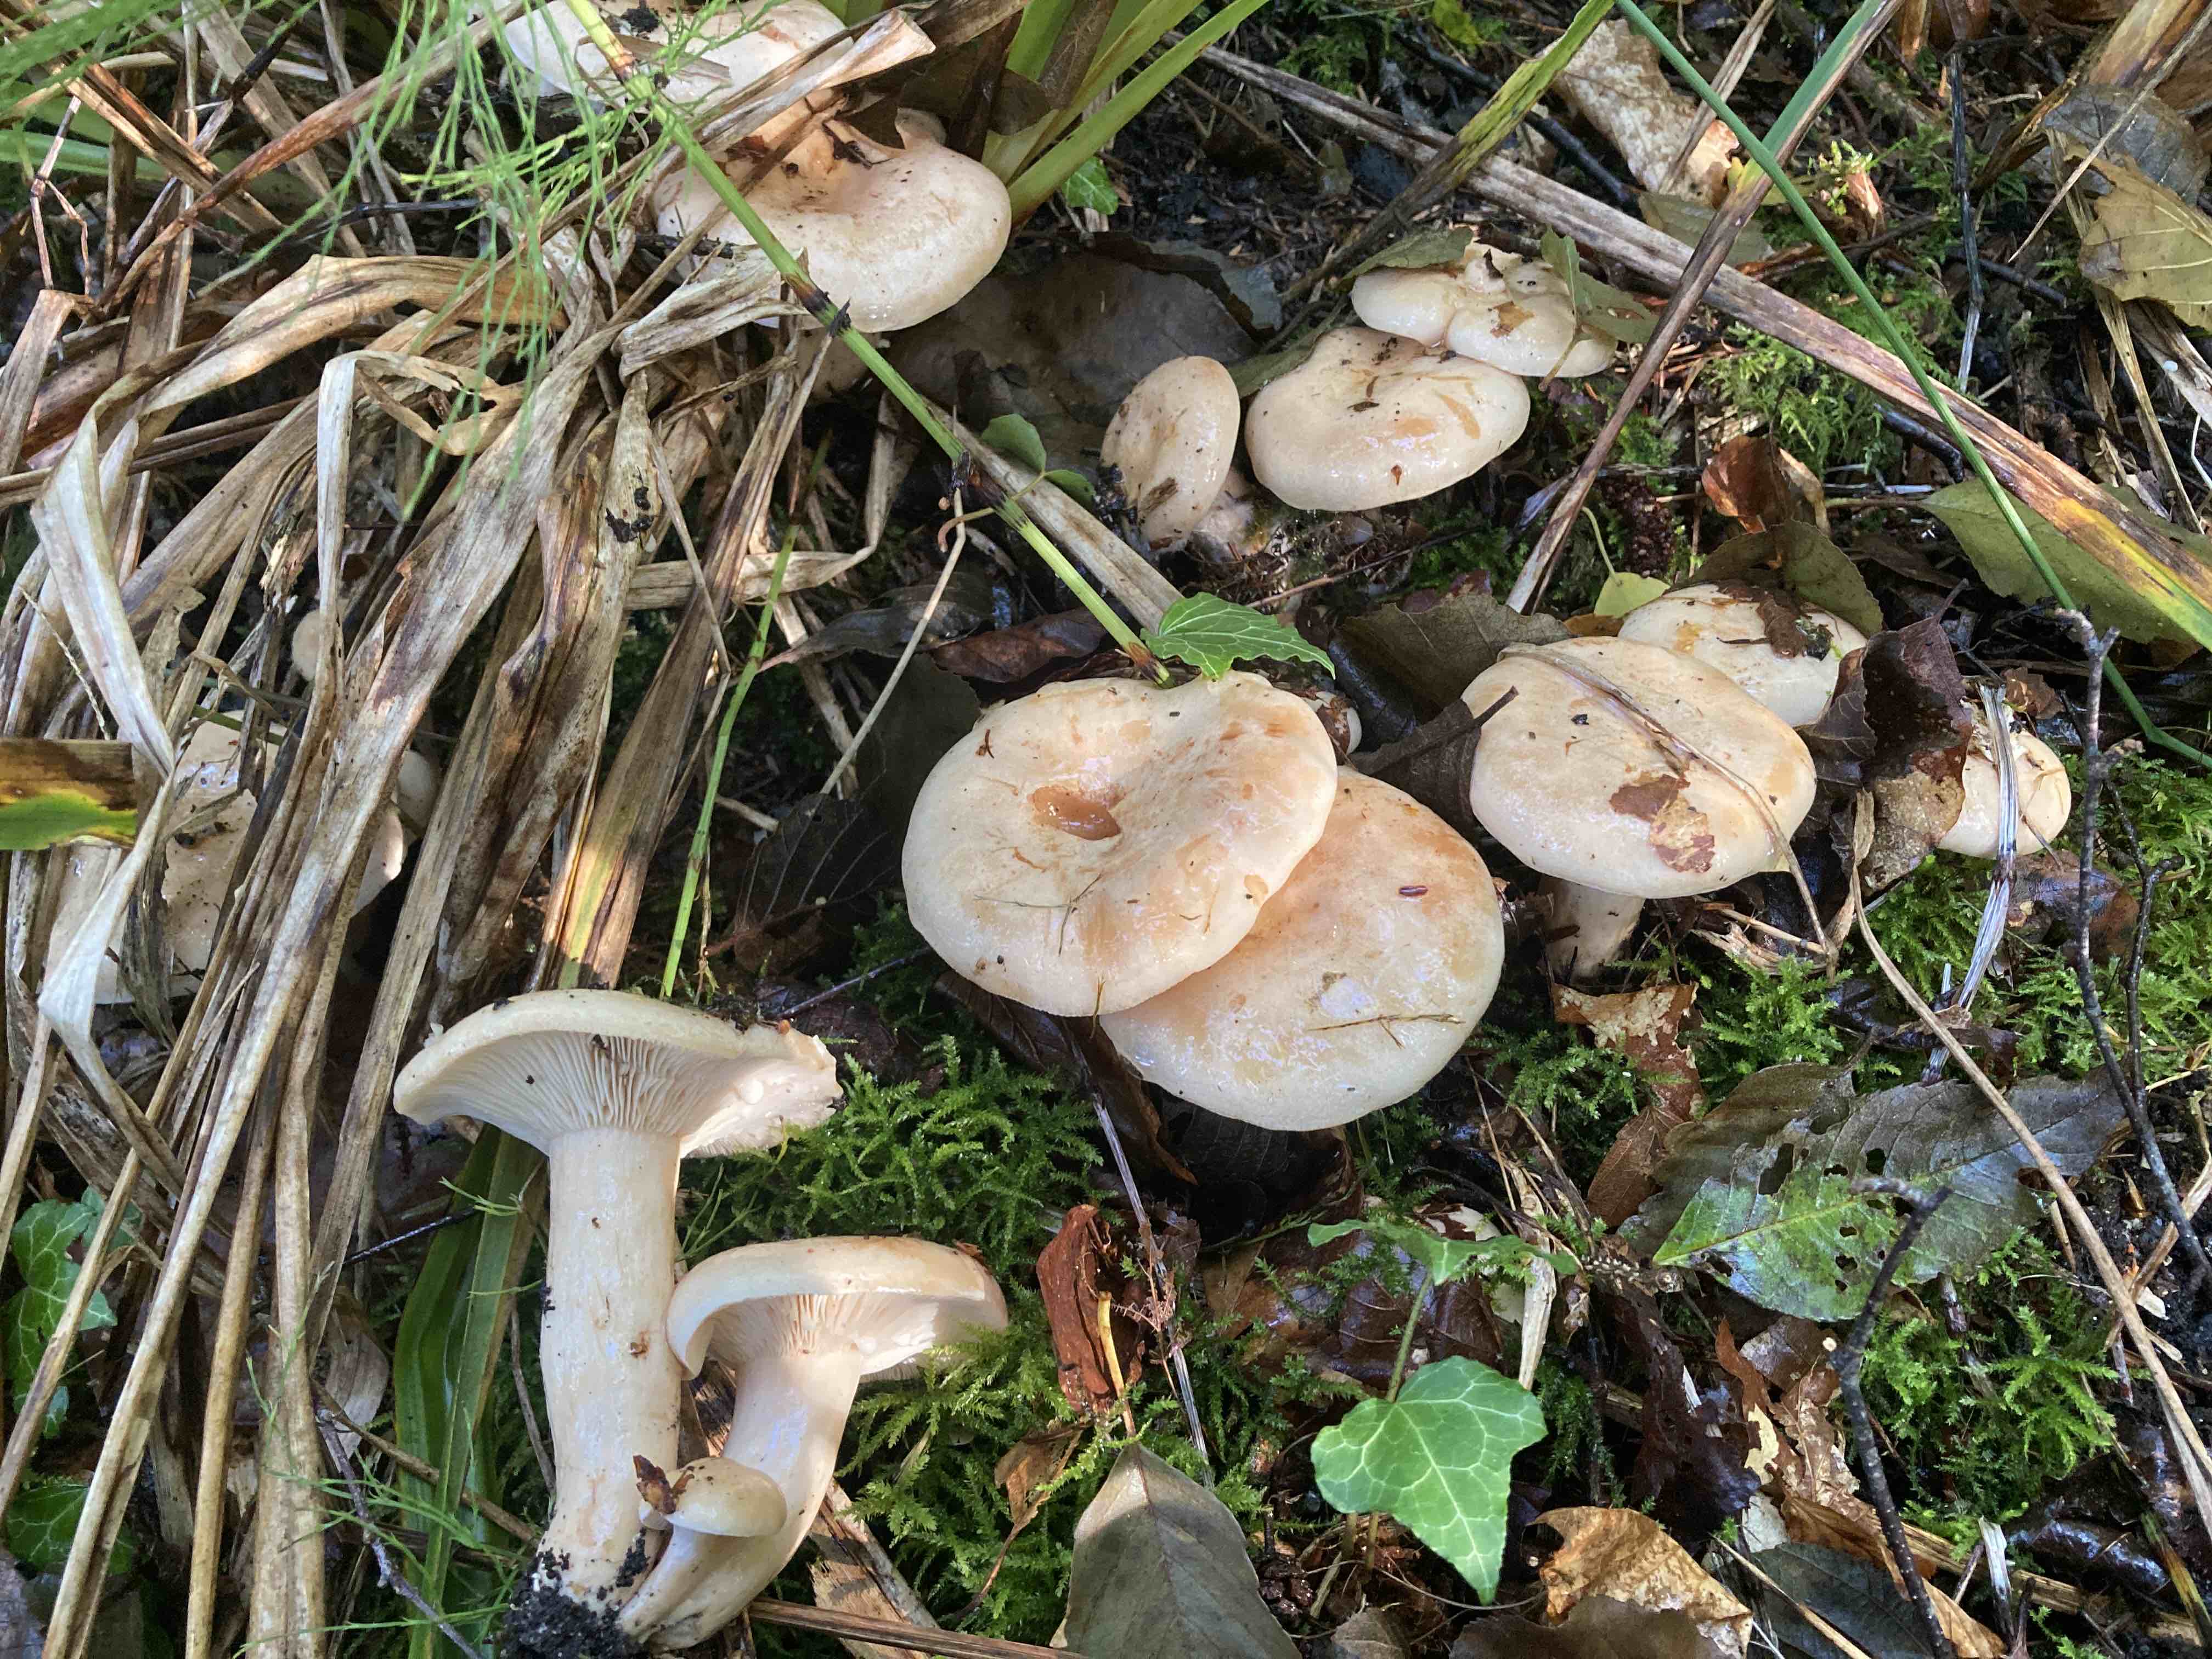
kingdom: Fungi
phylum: Basidiomycota
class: Agaricomycetes
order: Russulales
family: Russulaceae
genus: Lactarius
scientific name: Lactarius pallidus
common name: bleg mælkehat
